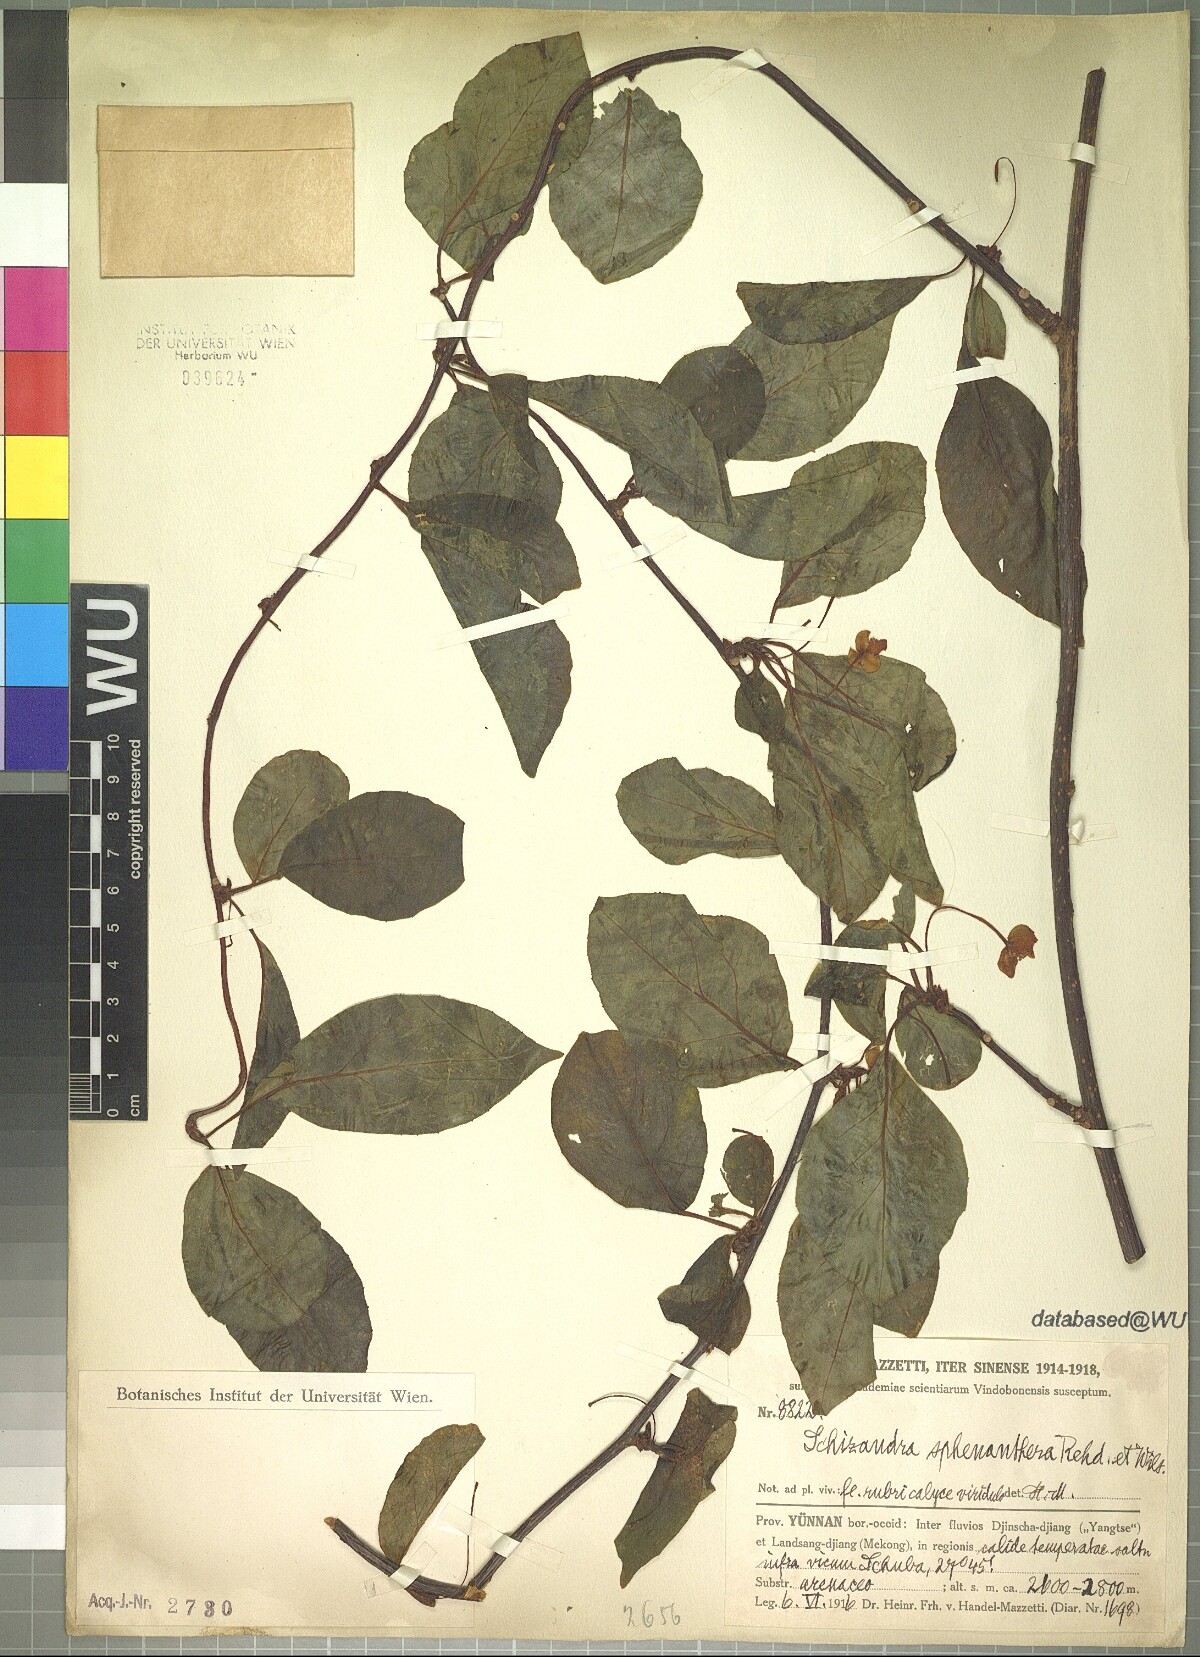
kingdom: Plantae
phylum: Tracheophyta
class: Magnoliopsida
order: Austrobaileyales
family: Schisandraceae
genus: Schisandra
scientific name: Schisandra sphenanthera
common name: Lemonwood
